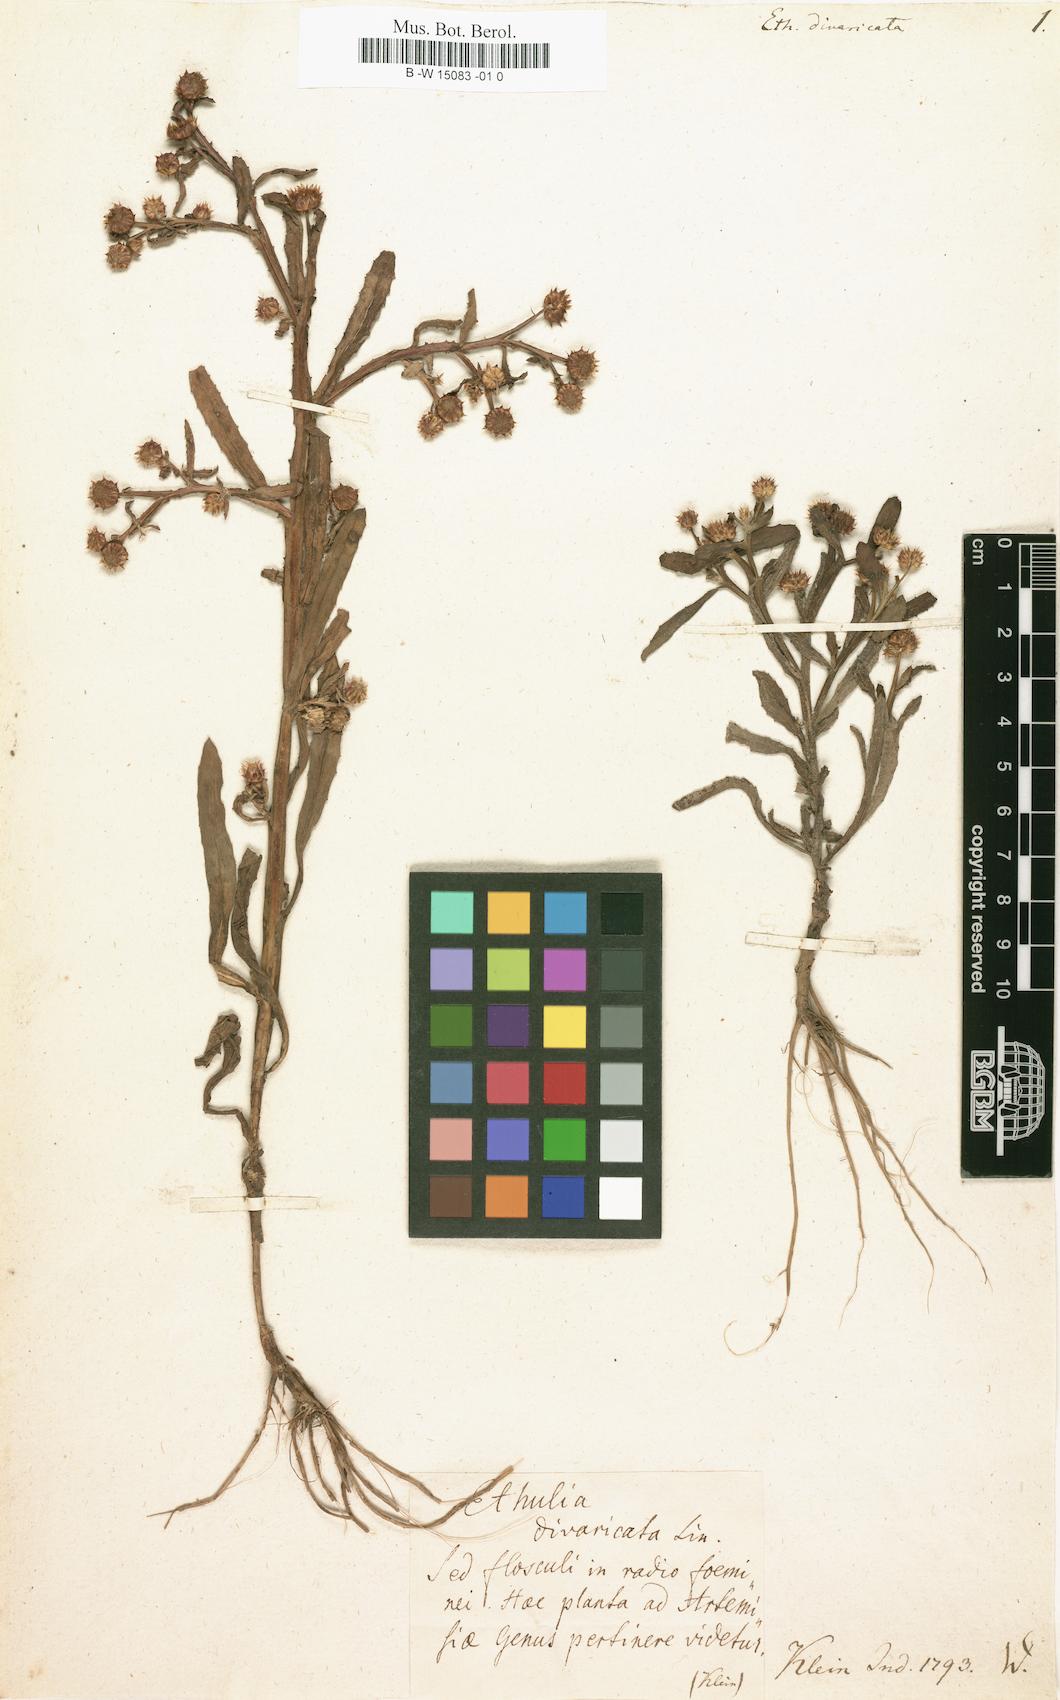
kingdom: Plantae
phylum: Tracheophyta
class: Magnoliopsida
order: Asterales
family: Asteraceae
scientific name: Asteraceae
